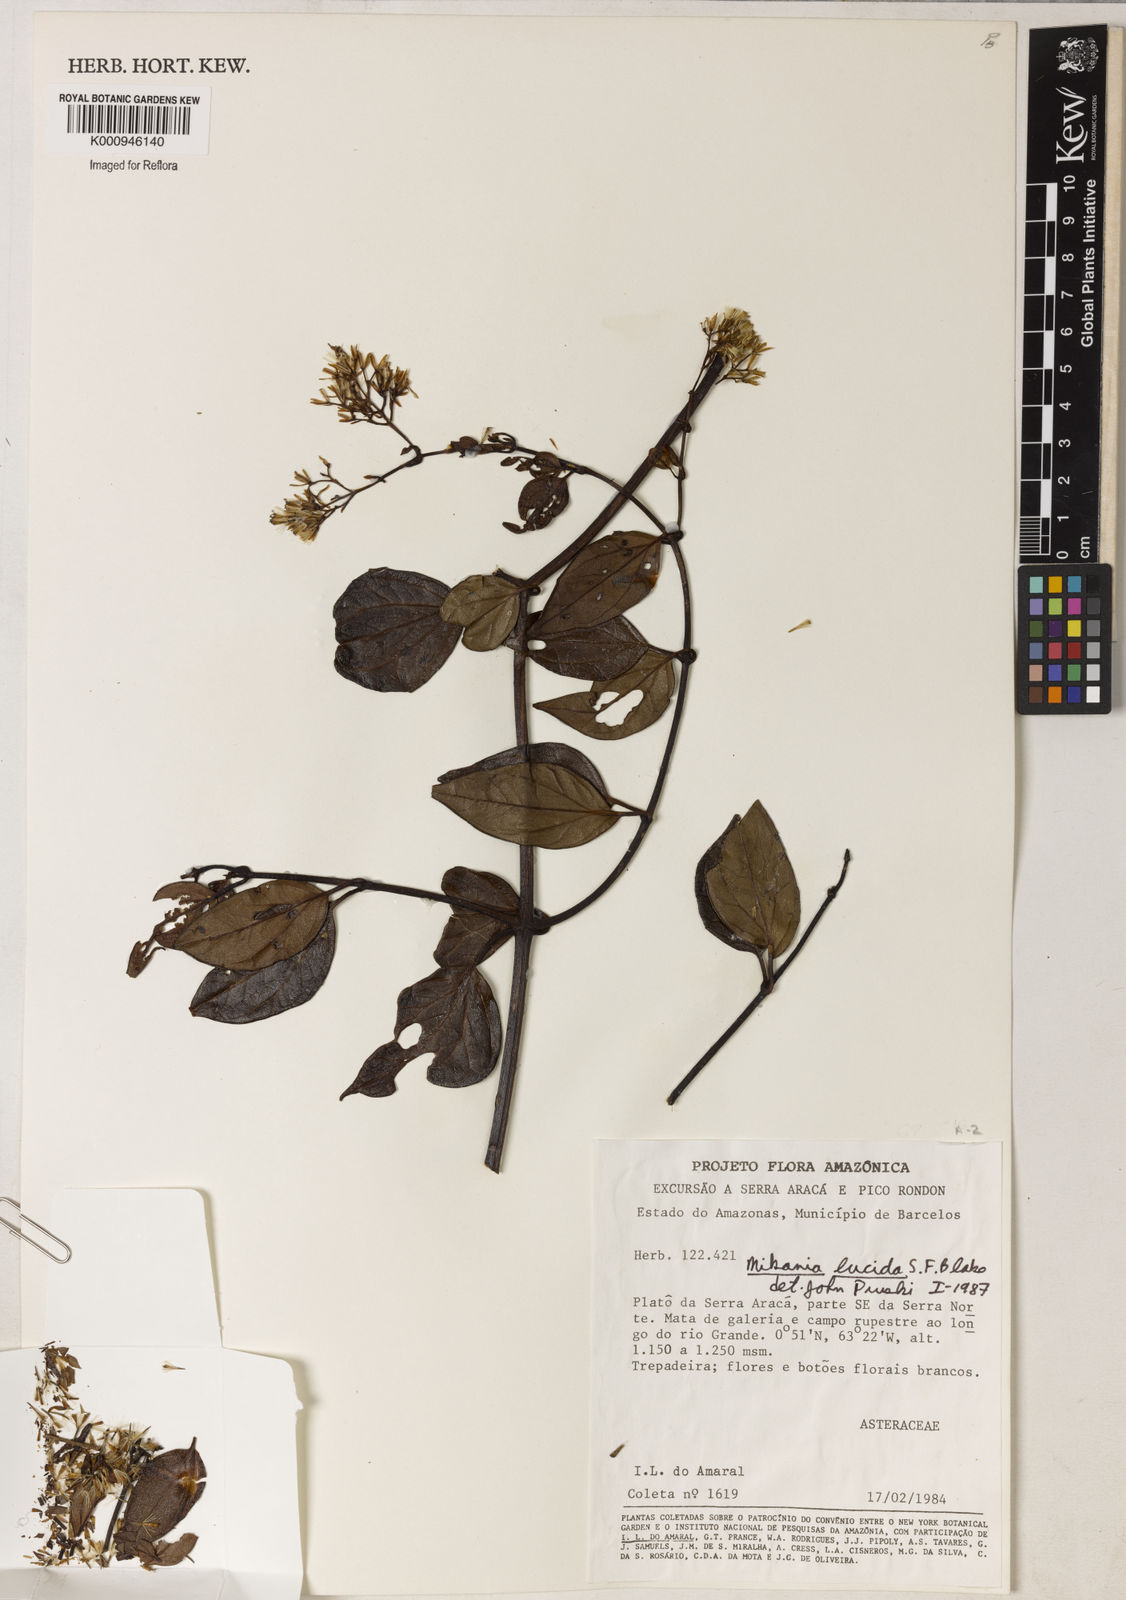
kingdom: Plantae
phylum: Tracheophyta
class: Magnoliopsida
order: Asterales
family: Asteraceae
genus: Mikania
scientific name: Mikania lucida
